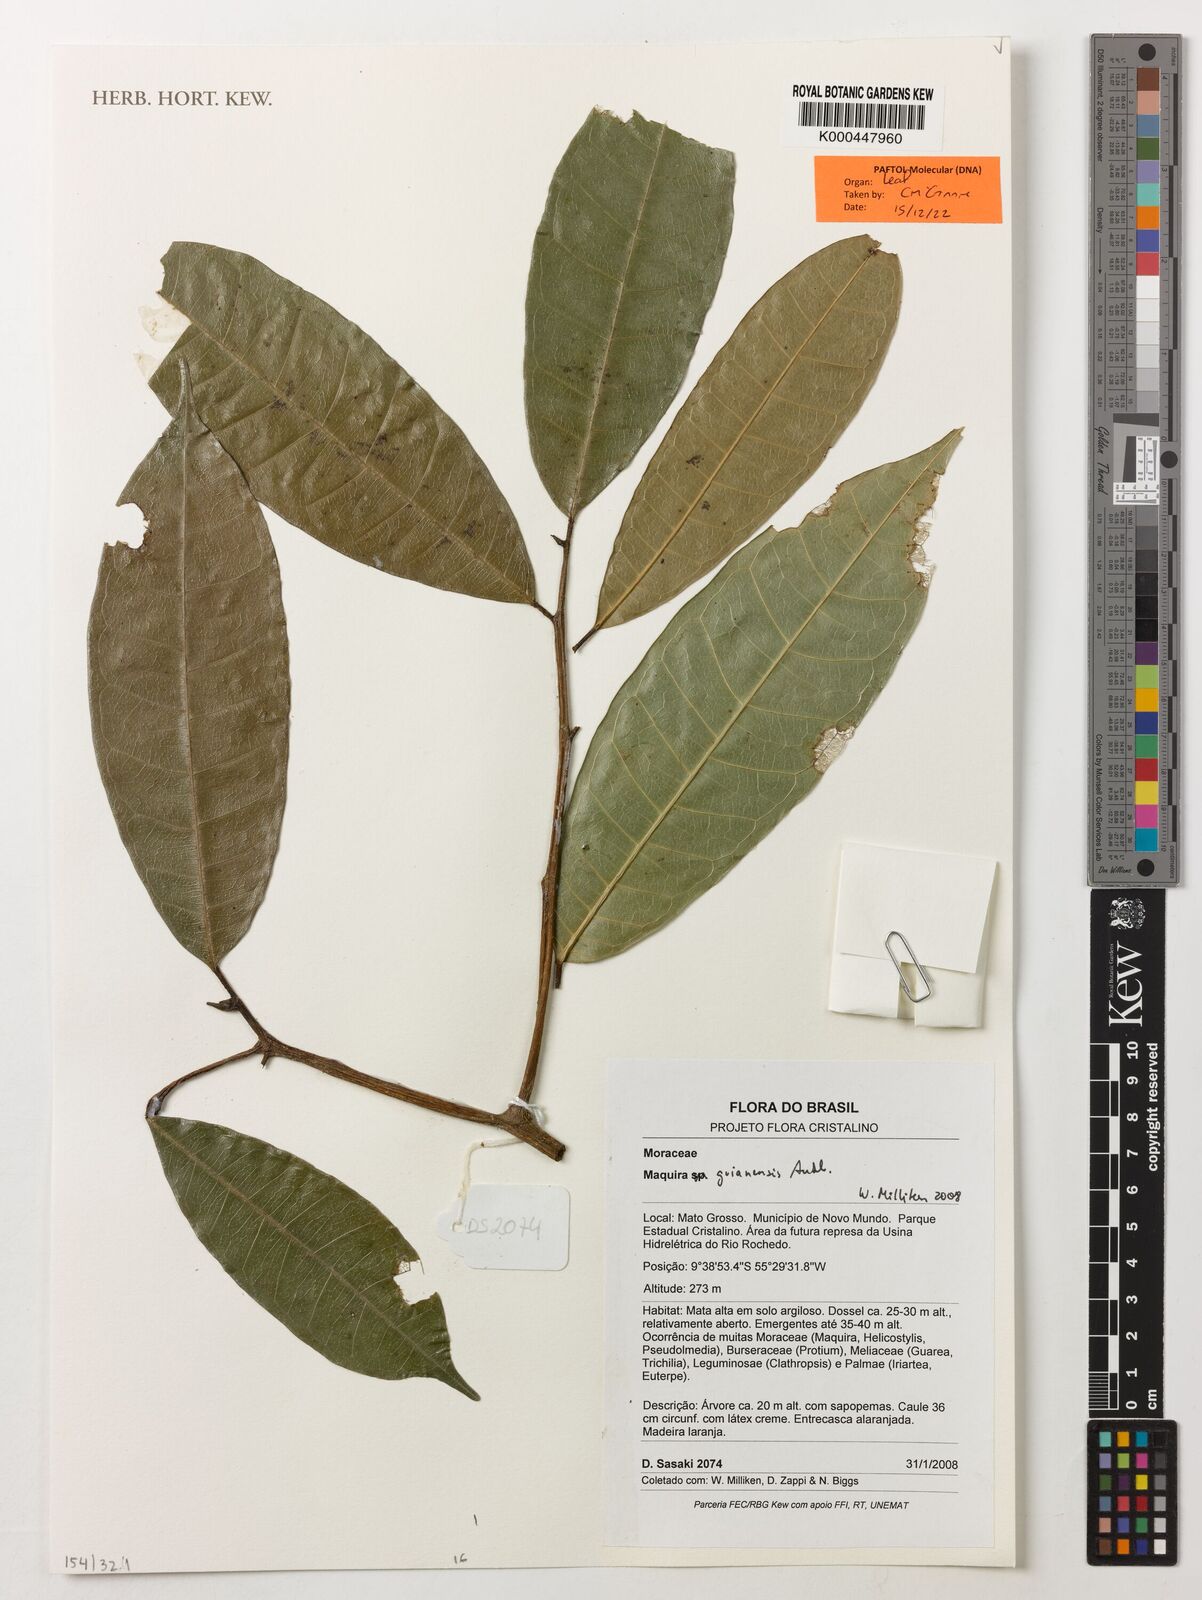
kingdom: Plantae
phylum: Tracheophyta
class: Magnoliopsida
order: Rosales
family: Moraceae
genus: Maquira
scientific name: Maquira guianensis
